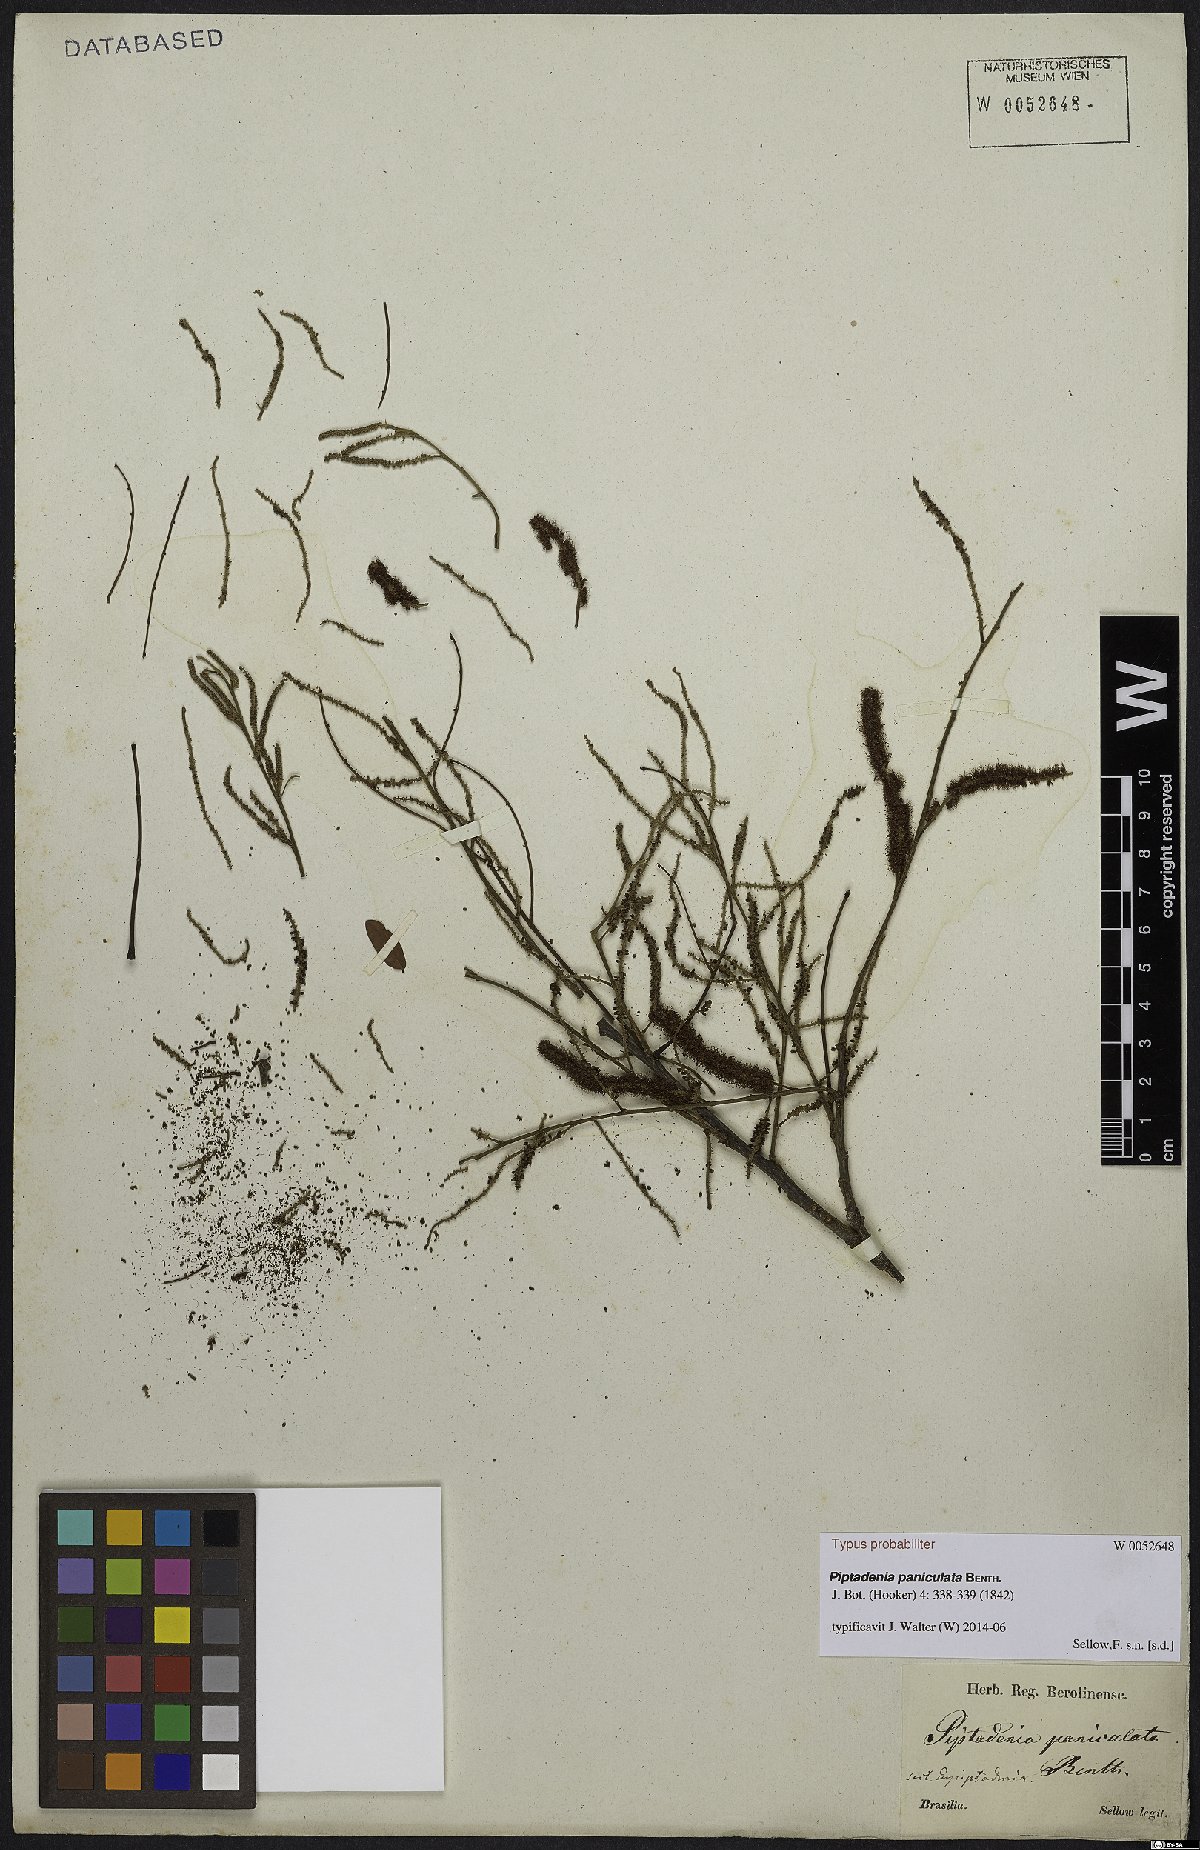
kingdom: Plantae
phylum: Tracheophyta
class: Magnoliopsida
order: Fabales
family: Fabaceae
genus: Piptadenia
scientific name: Piptadenia paniculata
